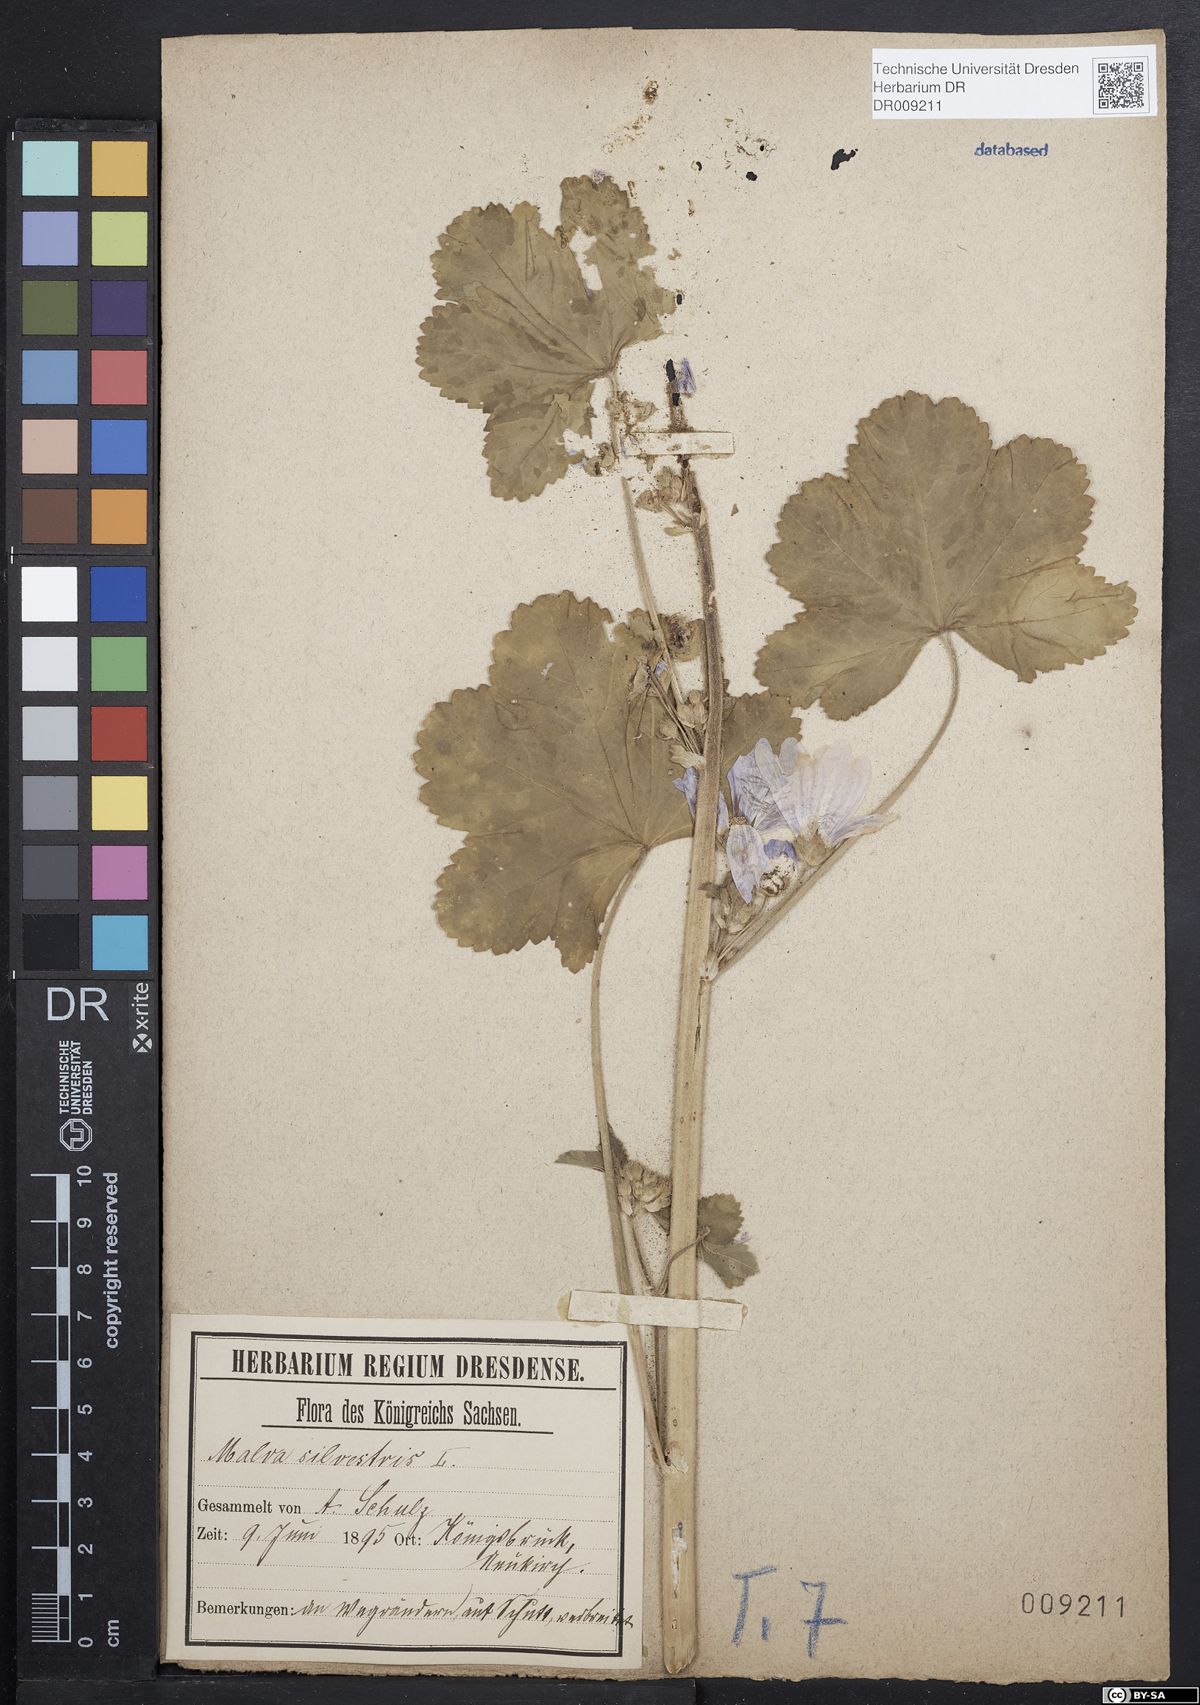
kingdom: Plantae
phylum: Tracheophyta
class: Magnoliopsida
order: Malvales
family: Malvaceae
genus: Malva
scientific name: Malva sylvestris
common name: Common mallow
